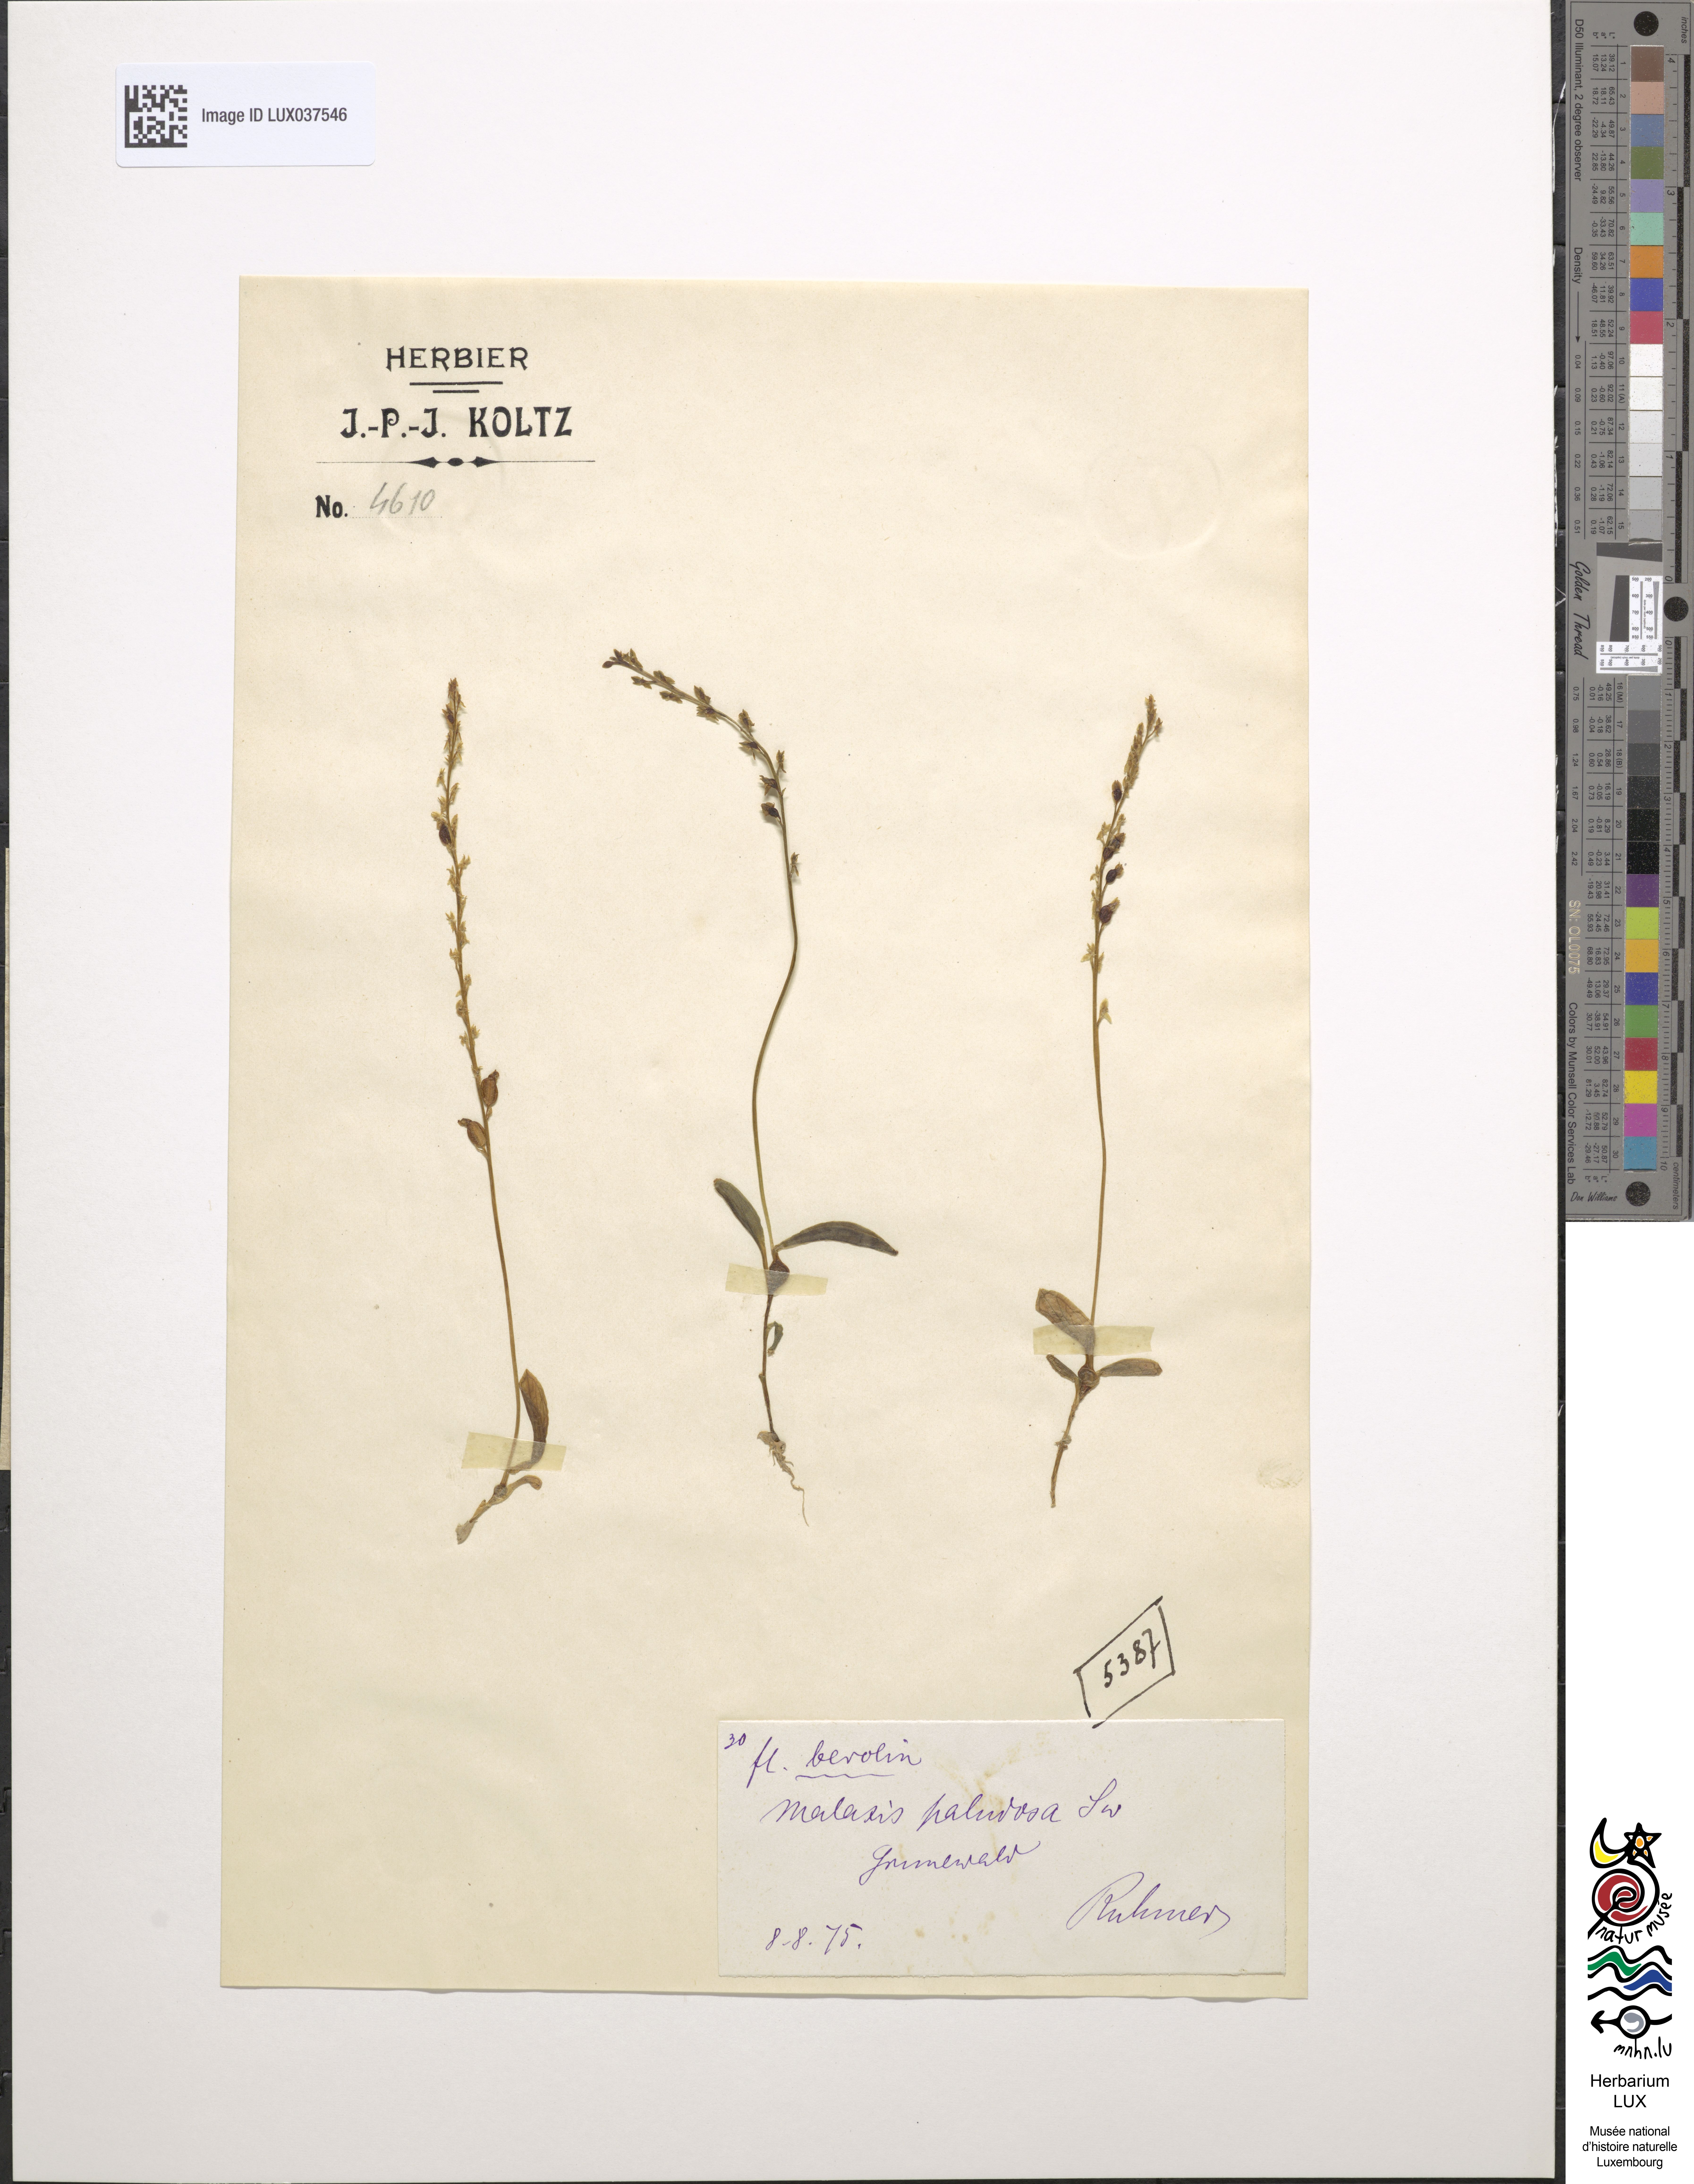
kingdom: Plantae
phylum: Tracheophyta
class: Liliopsida
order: Asparagales
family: Orchidaceae
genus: Hammarbya
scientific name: Hammarbya paludosa
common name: Bog orchid
